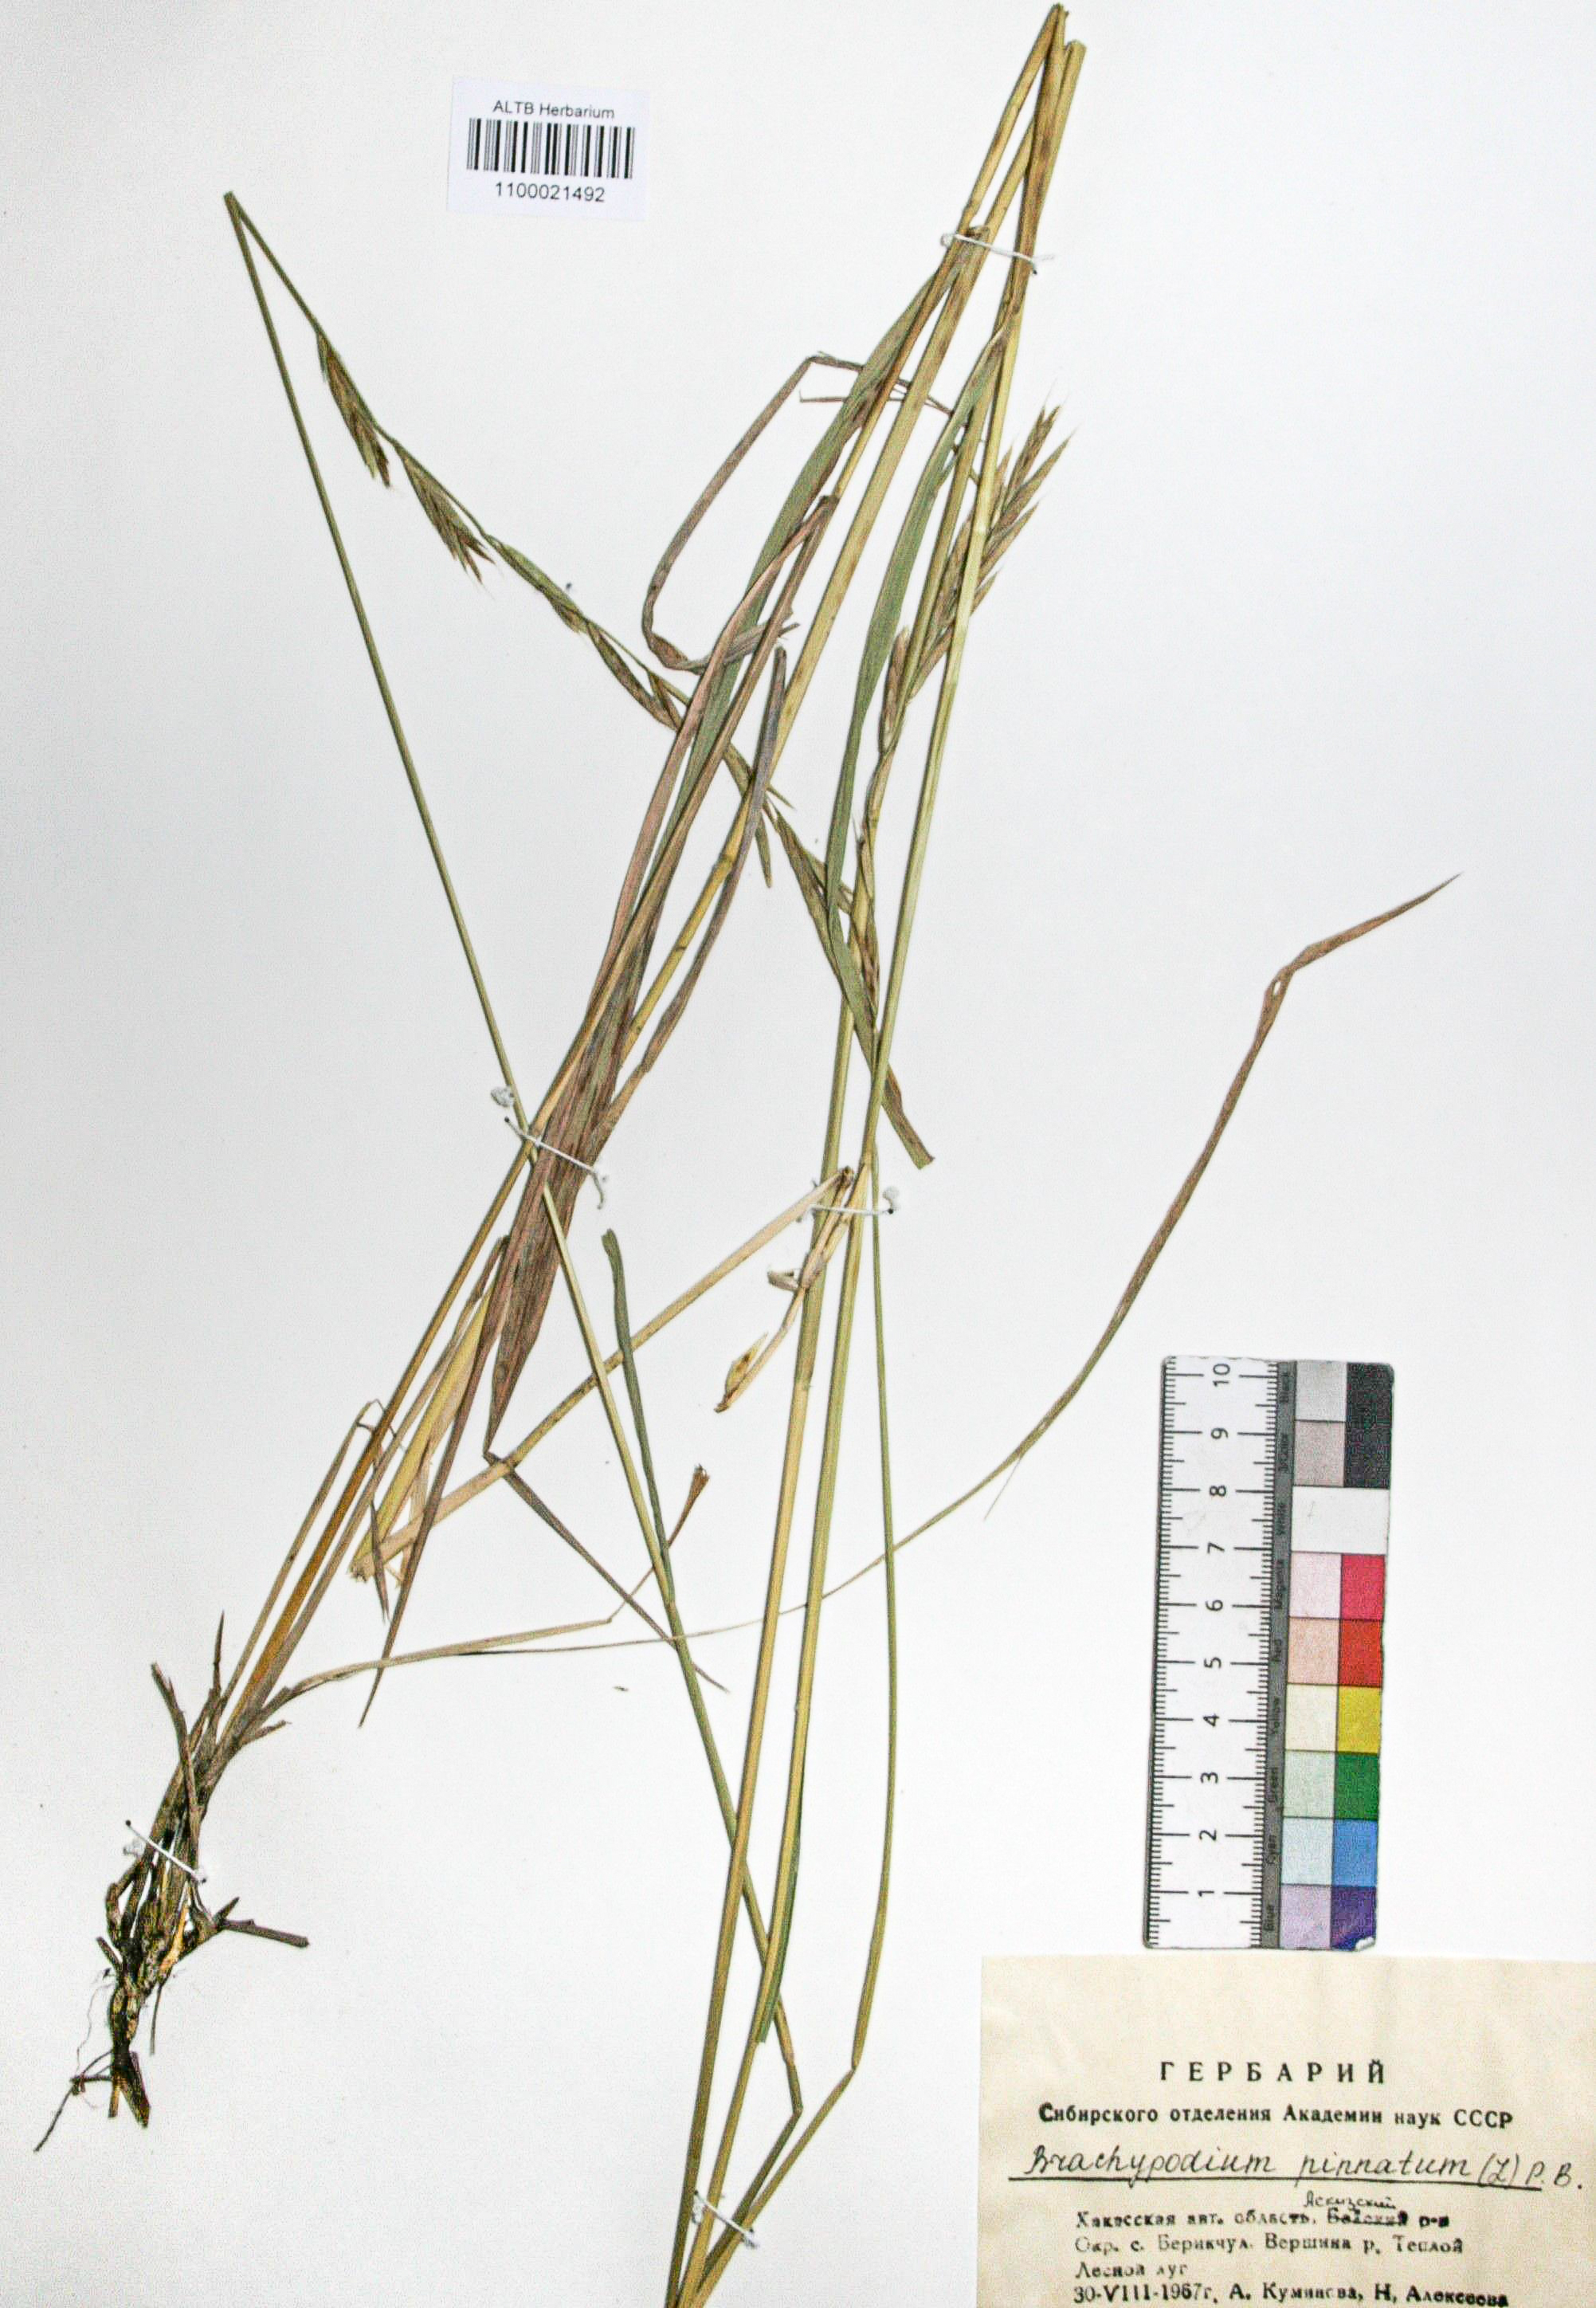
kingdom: Plantae
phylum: Tracheophyta
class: Liliopsida
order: Poales
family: Poaceae
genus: Brachypodium
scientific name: Brachypodium pinnatum
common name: Tor grass
